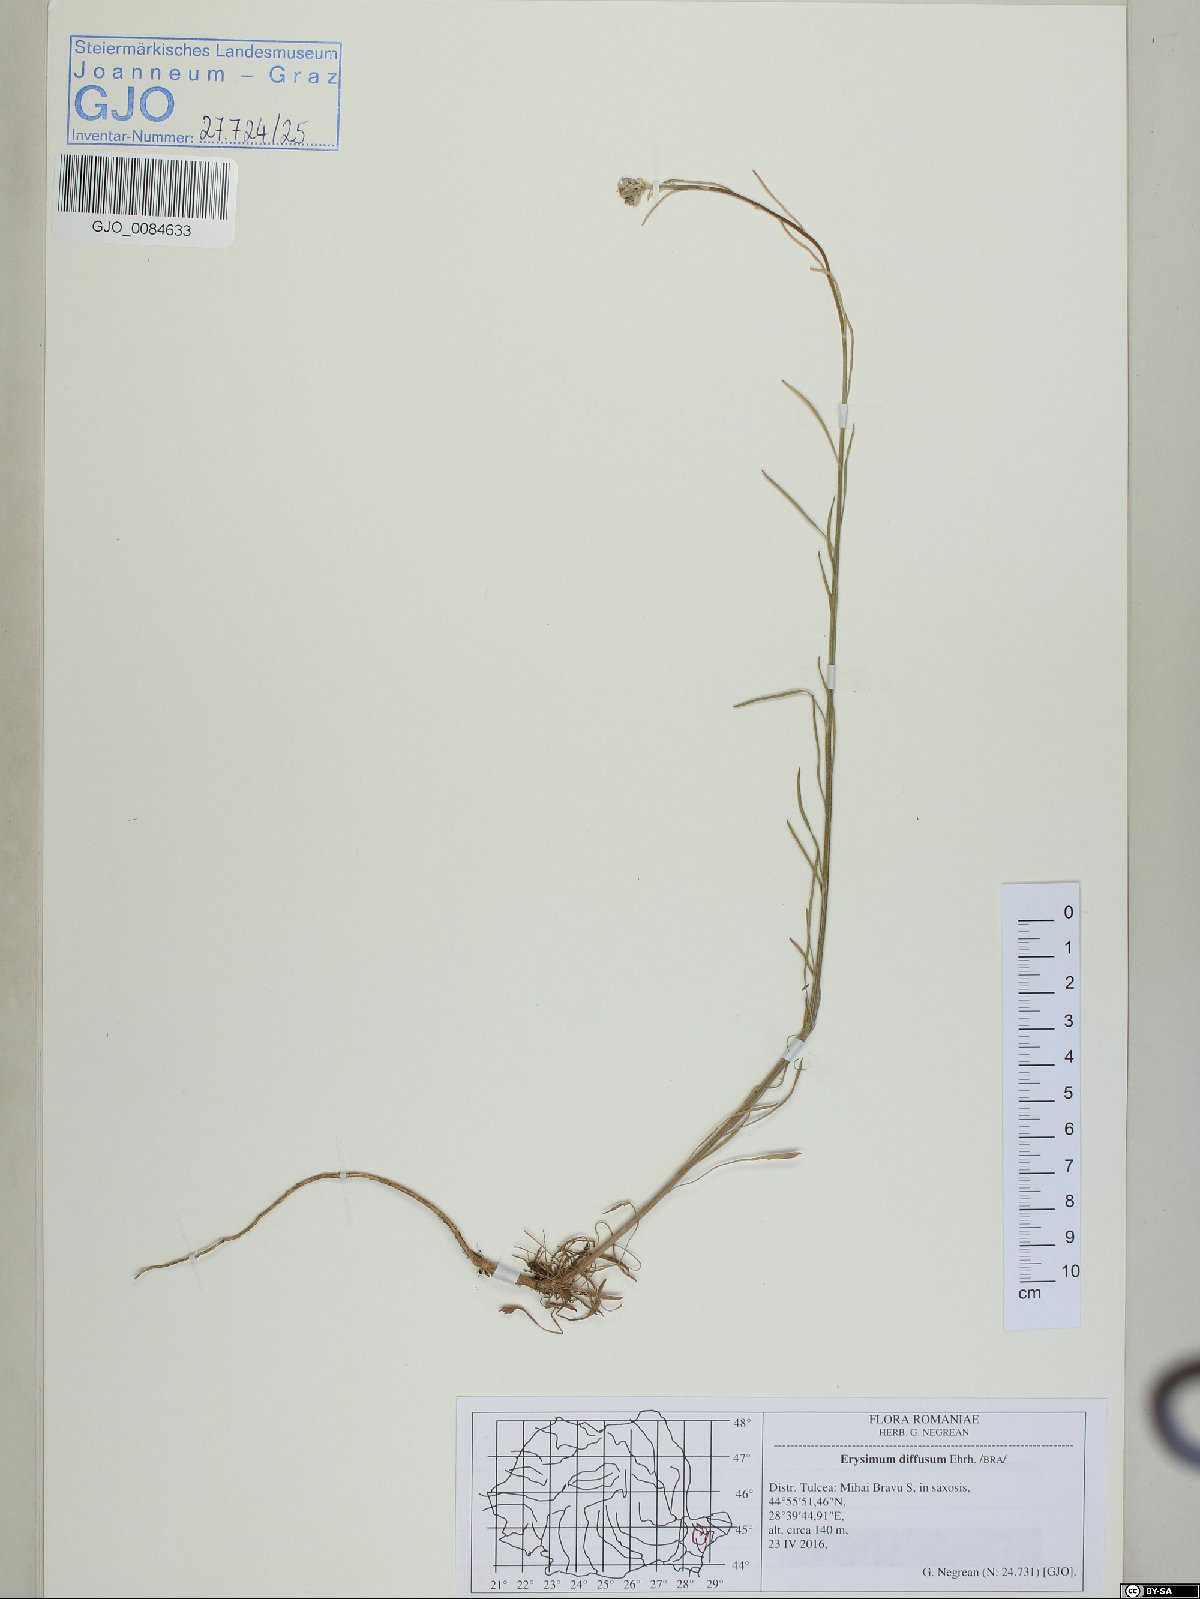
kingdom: Plantae
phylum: Tracheophyta
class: Magnoliopsida
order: Brassicales
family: Brassicaceae
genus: Erysimum
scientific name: Erysimum diffusum
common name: Diffuse wallflower
